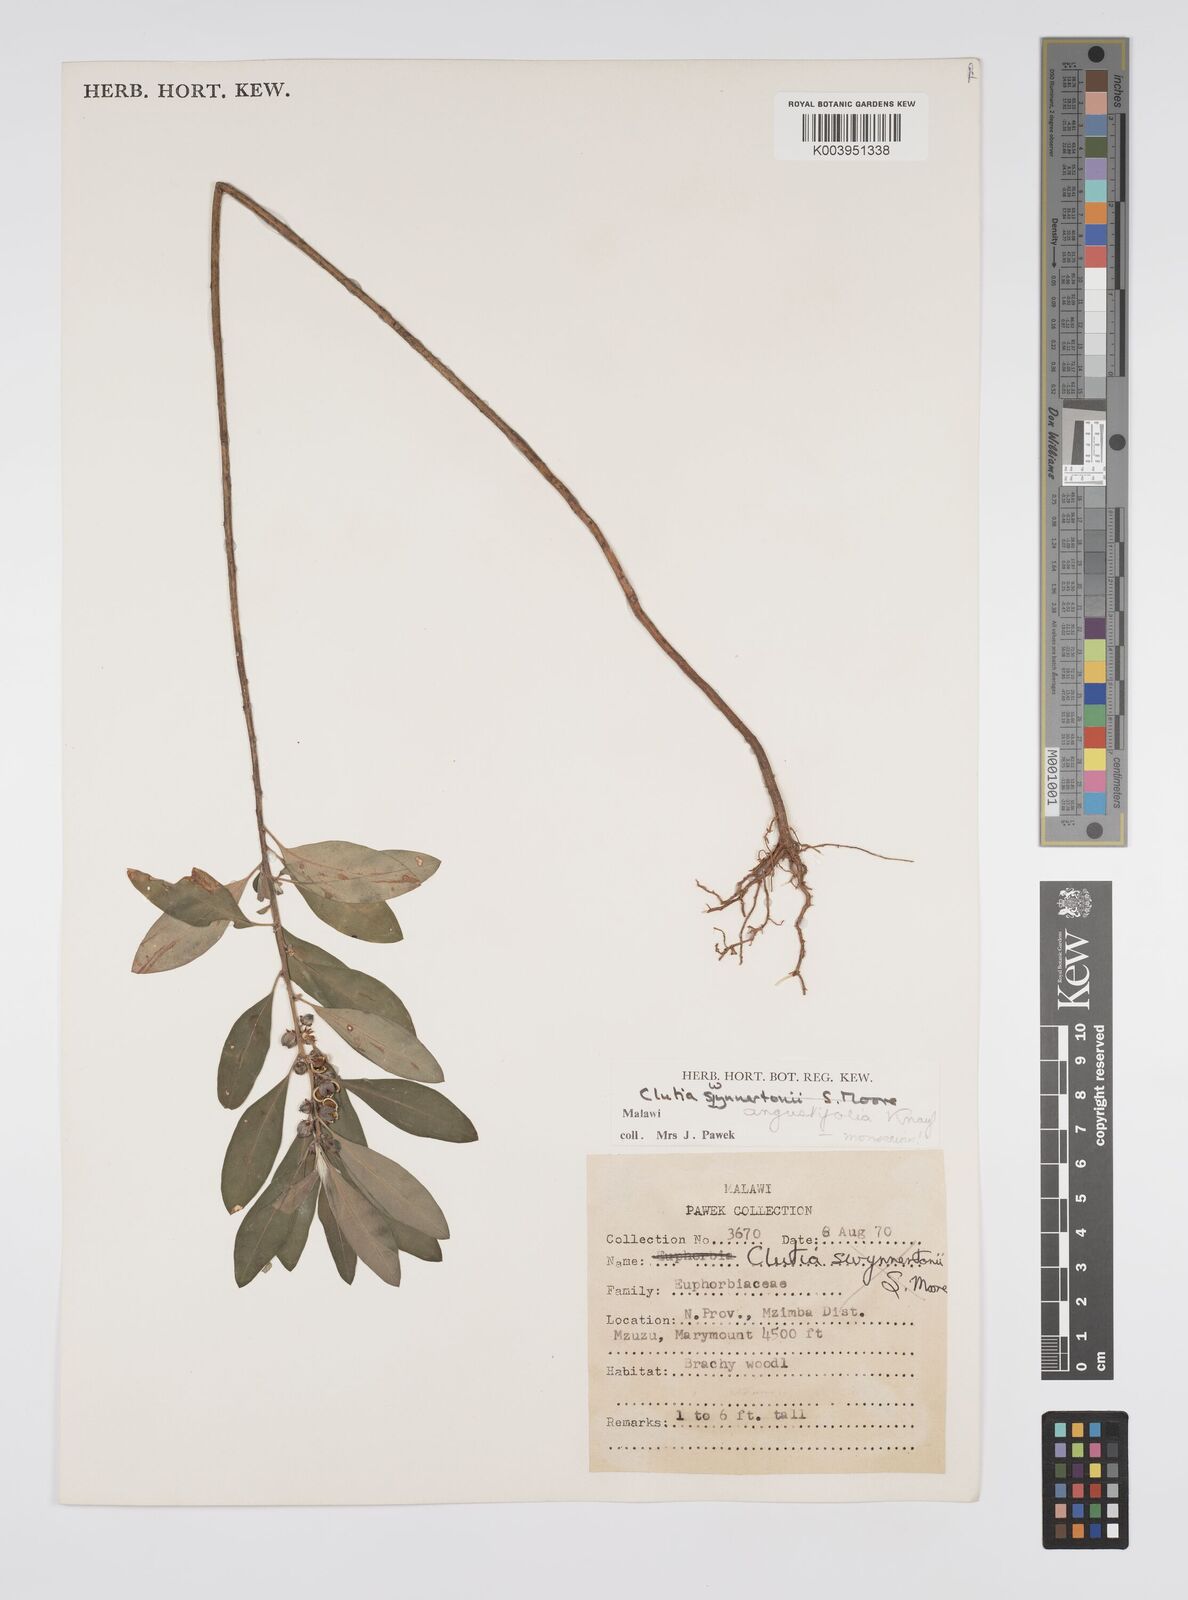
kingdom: Plantae
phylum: Tracheophyta
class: Magnoliopsida
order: Malpighiales
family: Peraceae
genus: Clutia
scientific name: Clutia angustifolia
